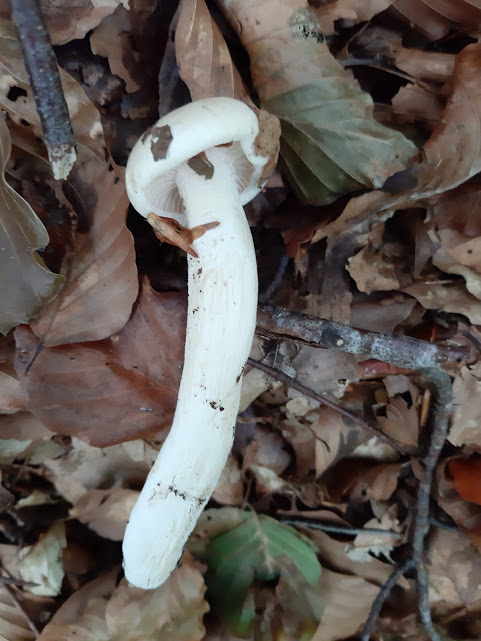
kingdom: Fungi
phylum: Basidiomycota
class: Agaricomycetes
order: Agaricales
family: Hygrophoraceae
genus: Hygrophorus
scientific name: Hygrophorus eburneus
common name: elfenbens-sneglehat
